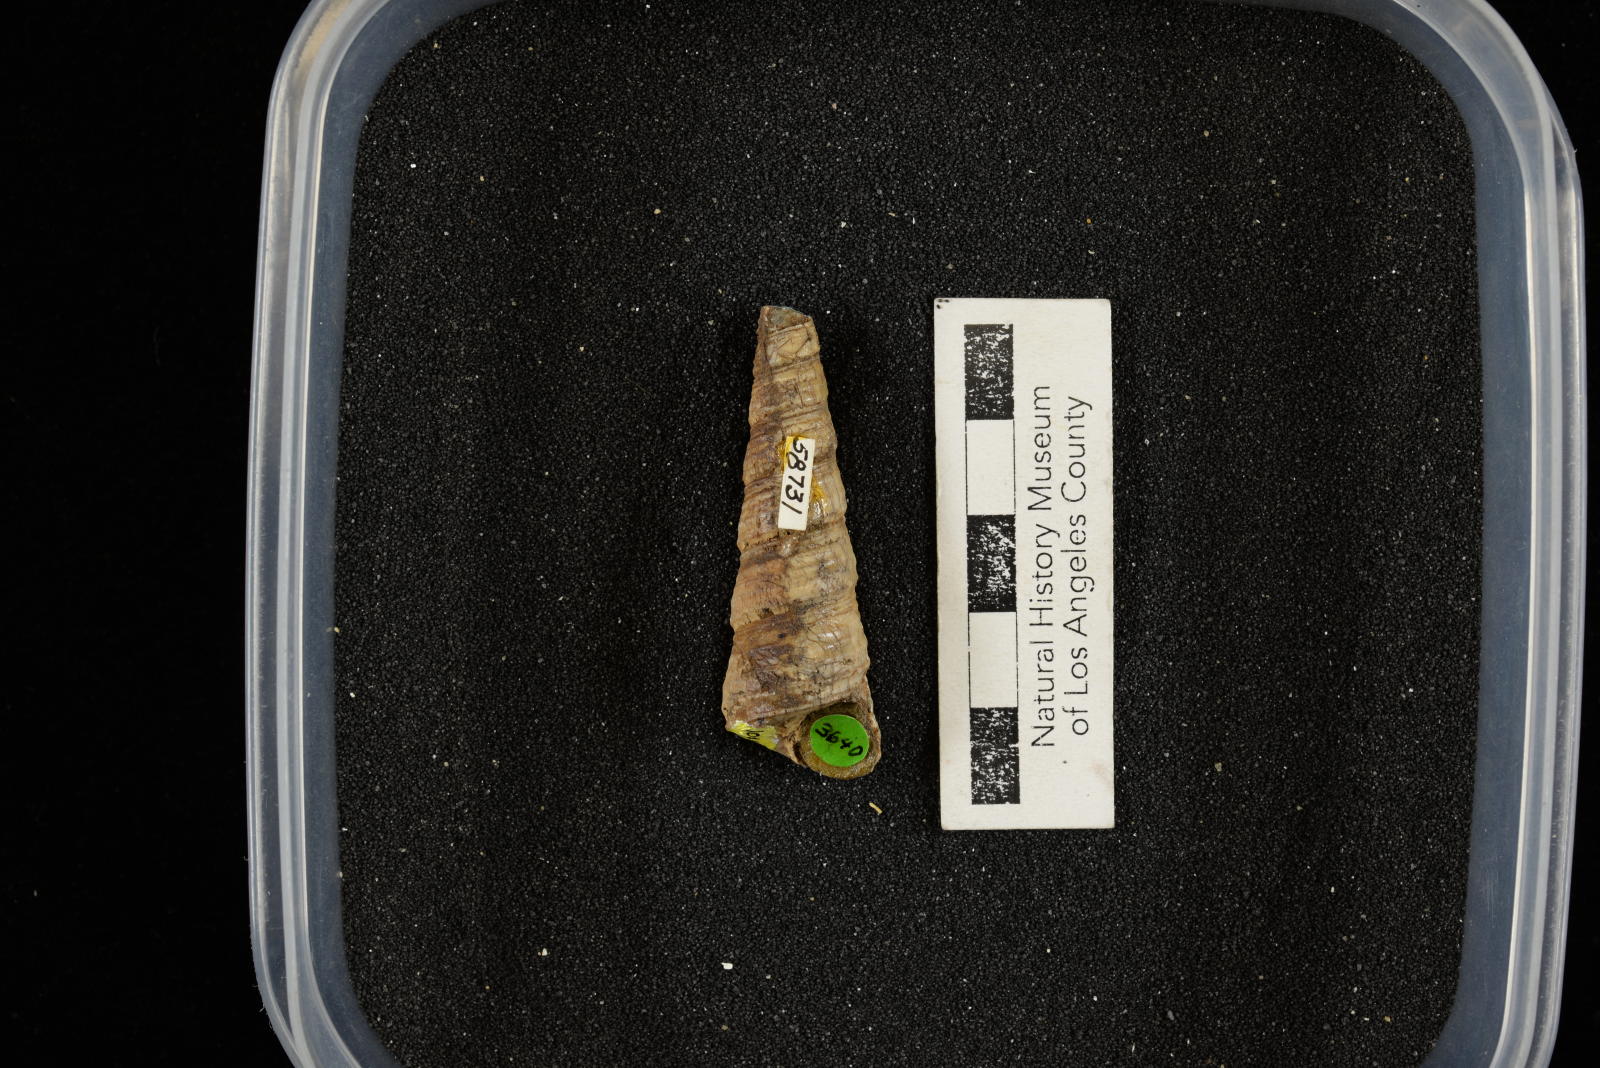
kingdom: Animalia
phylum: Mollusca
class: Gastropoda
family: Turritellidae
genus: Turritella
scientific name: Turritella chicoensis
